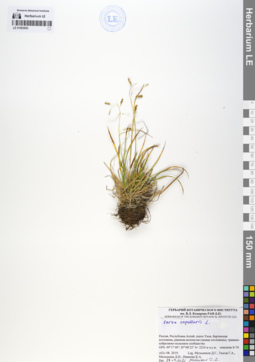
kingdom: Plantae
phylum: Tracheophyta
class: Liliopsida
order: Poales
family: Cyperaceae
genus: Carex
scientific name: Carex capillaris
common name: Hair sedge
